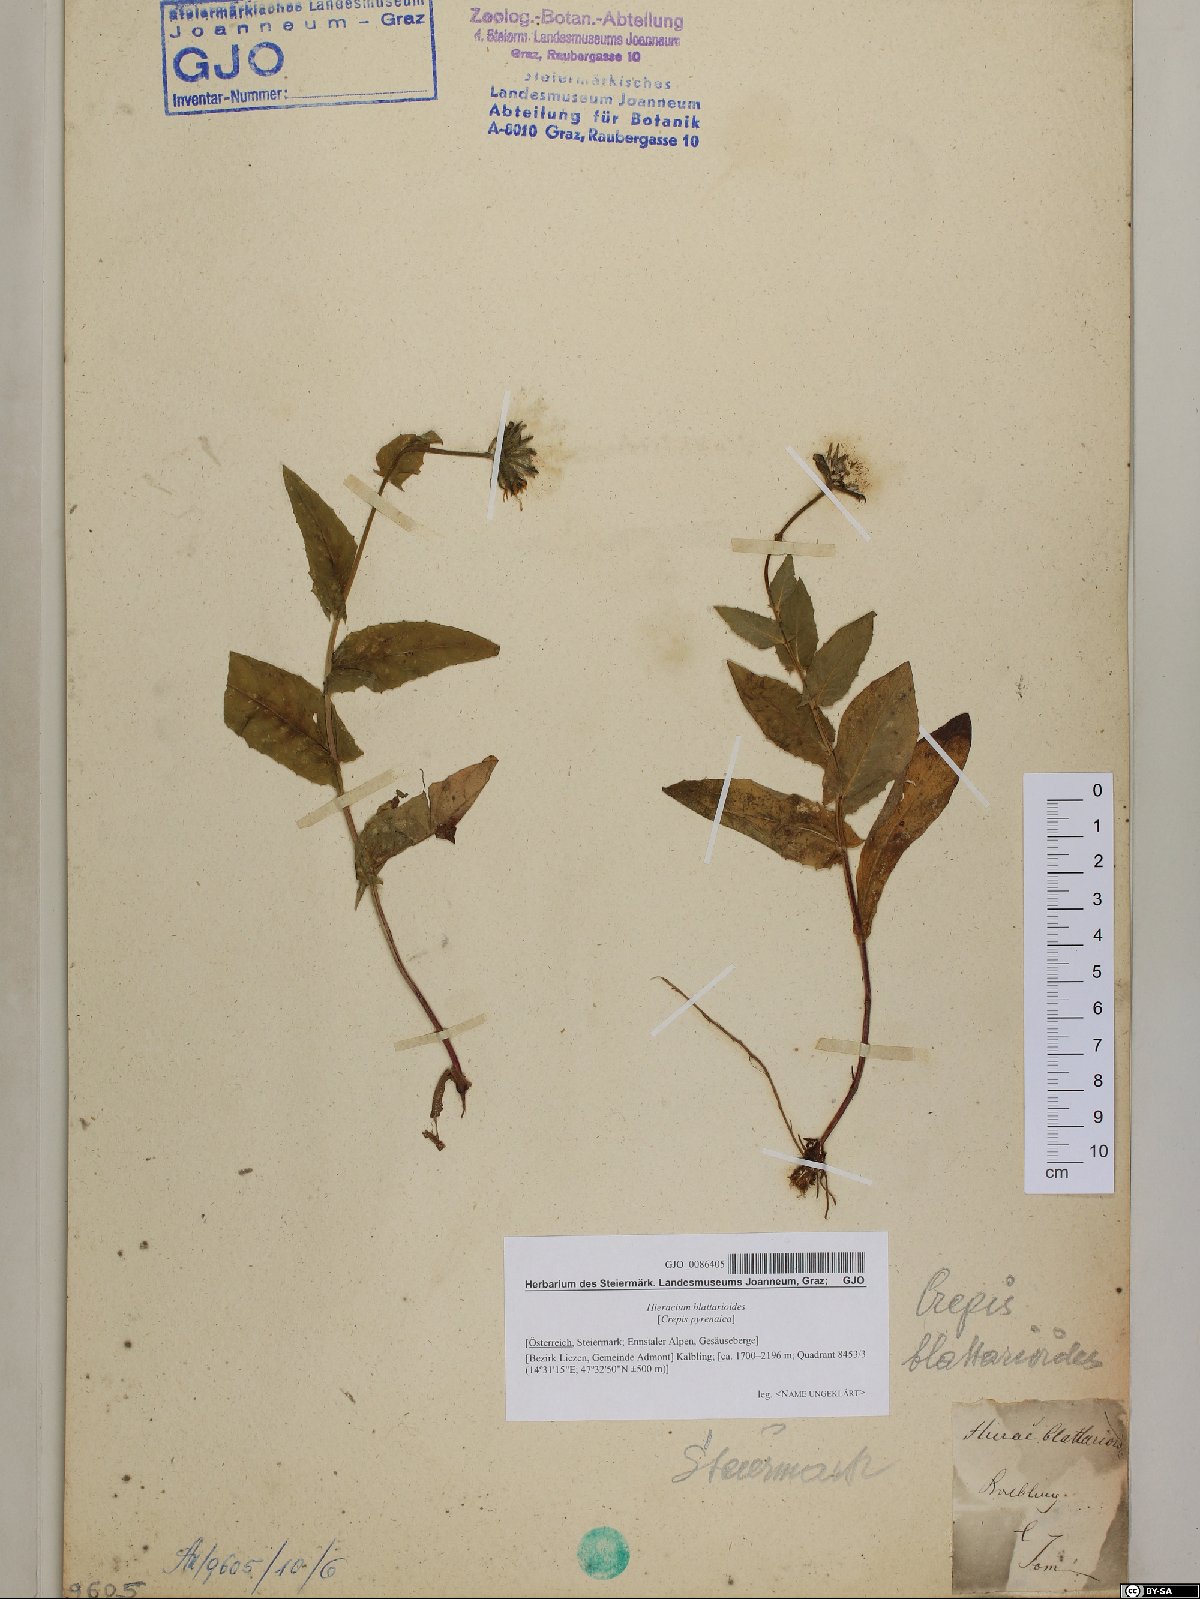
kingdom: Plantae
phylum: Tracheophyta
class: Magnoliopsida
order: Asterales
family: Asteraceae
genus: Crepis
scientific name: Crepis blattarioides
